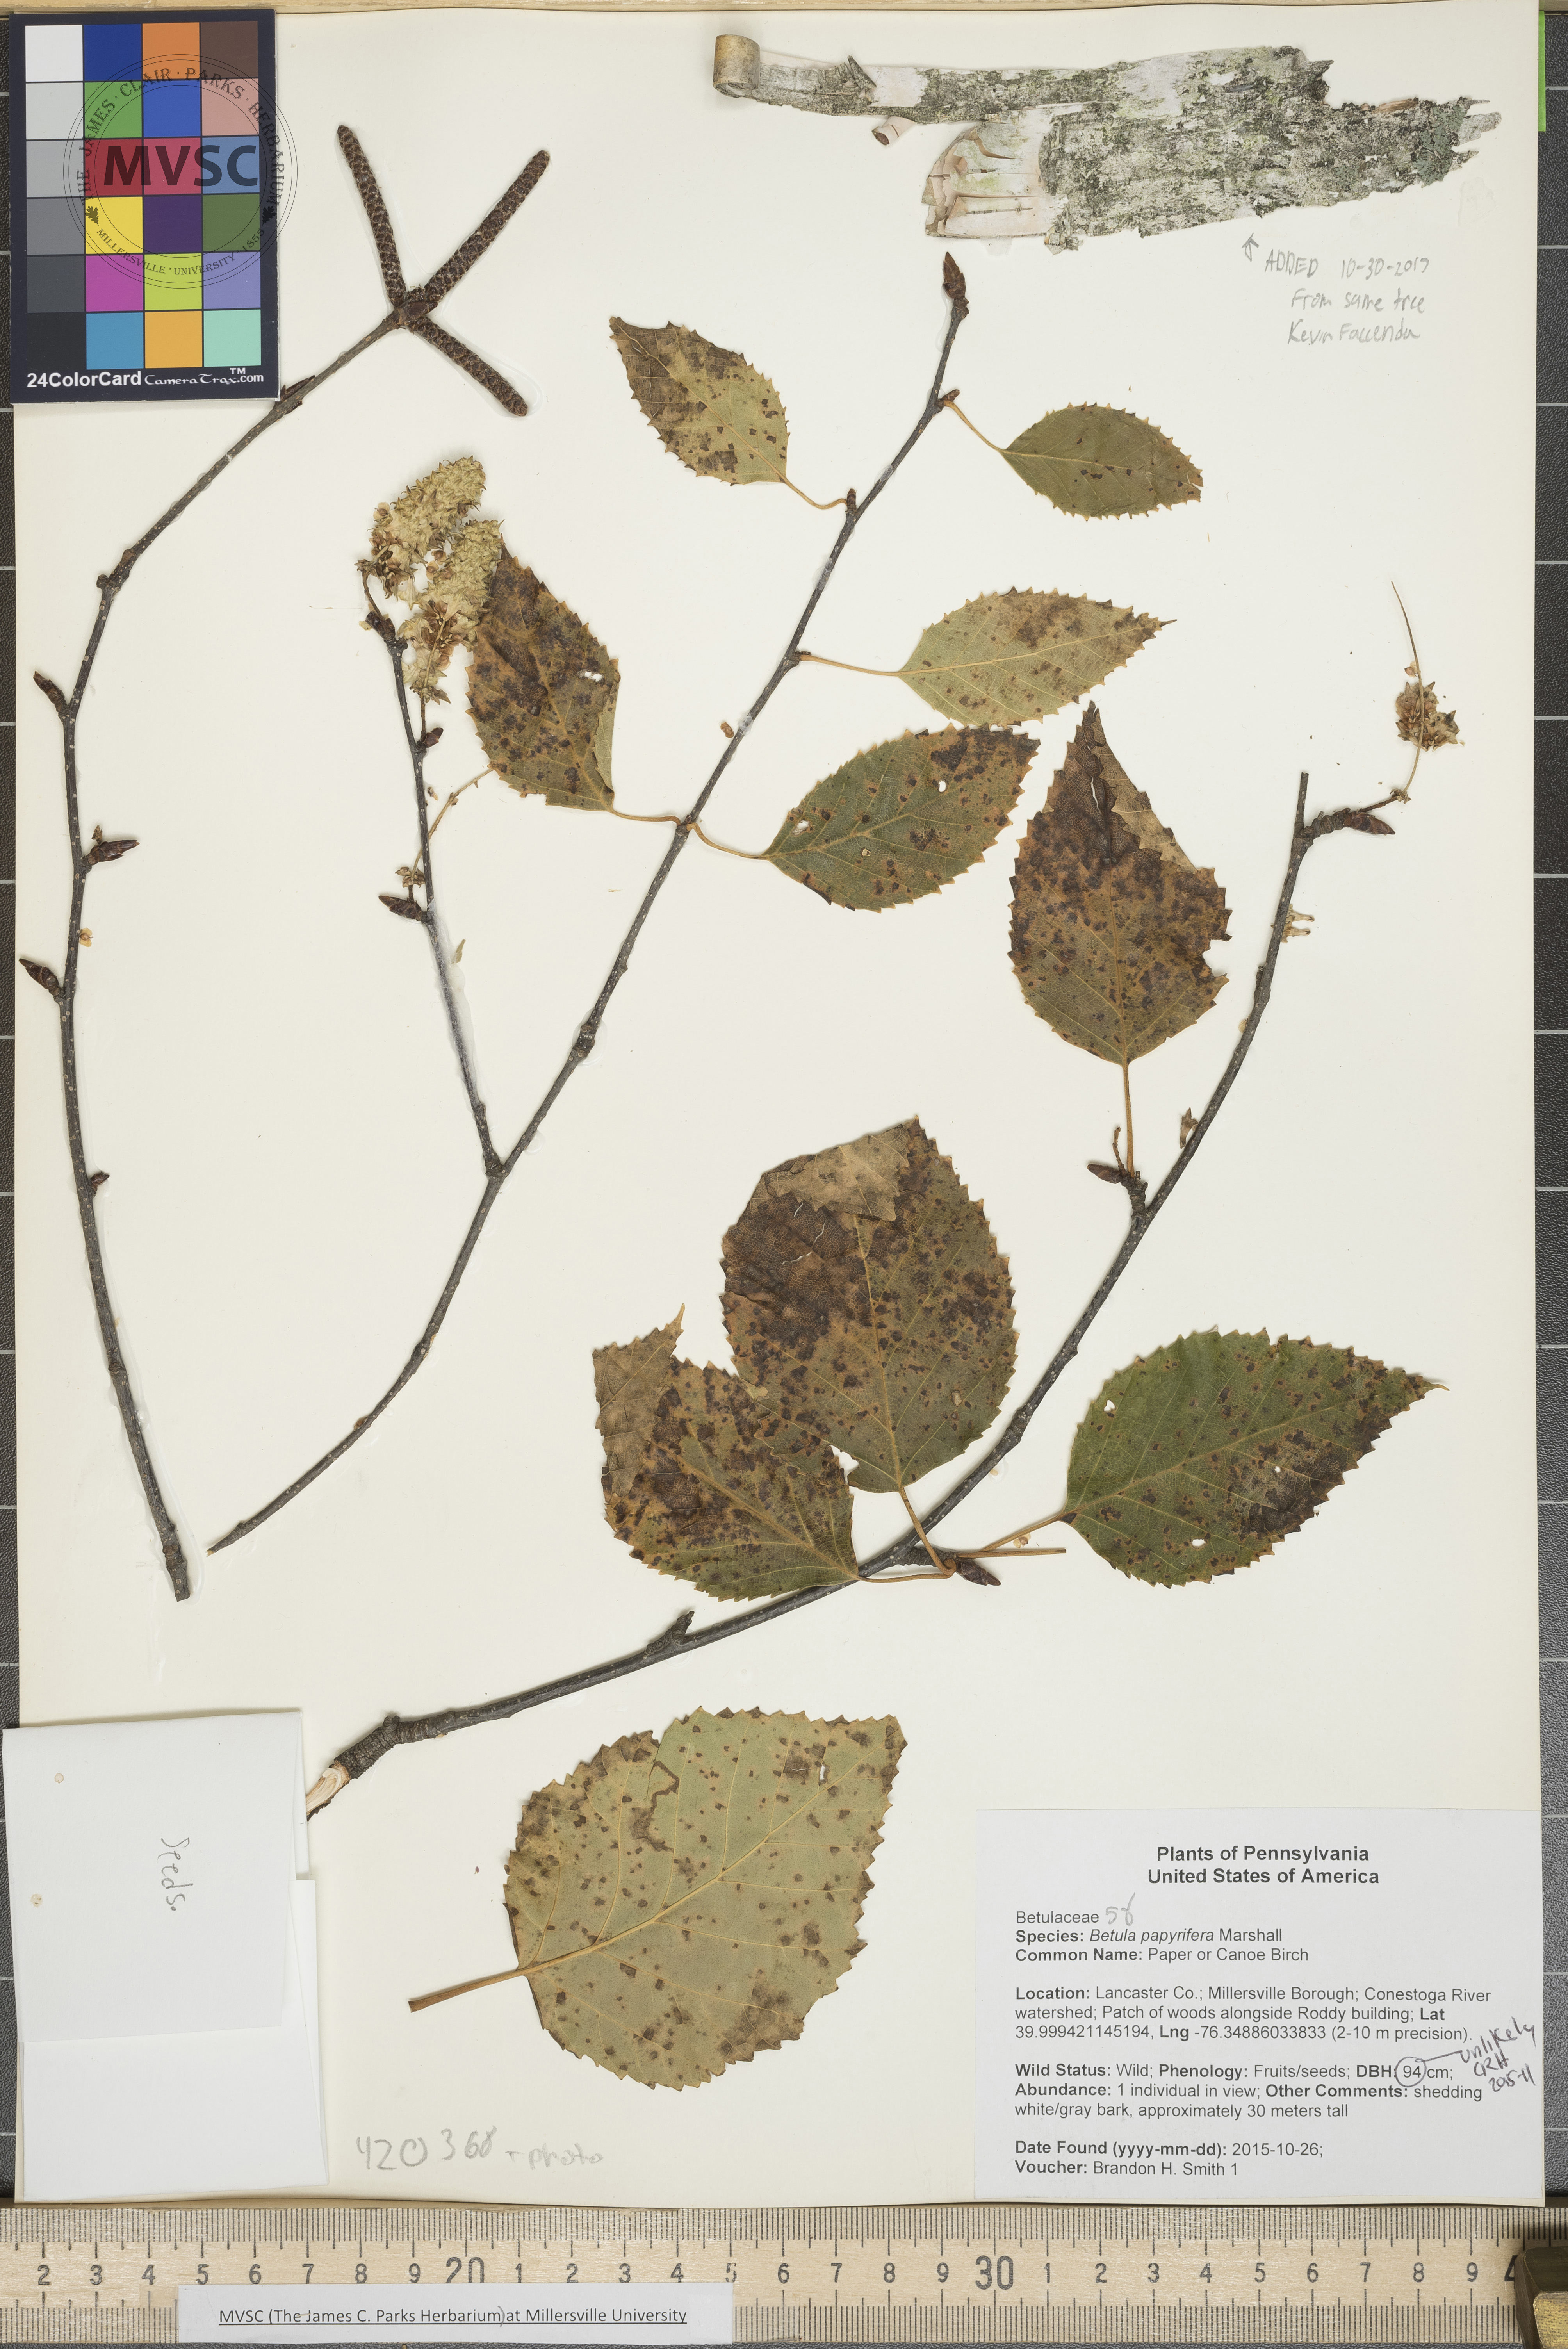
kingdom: Plantae
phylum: Tracheophyta
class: Magnoliopsida
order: Fagales
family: Betulaceae
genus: Betula
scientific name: Betula papyrifera
